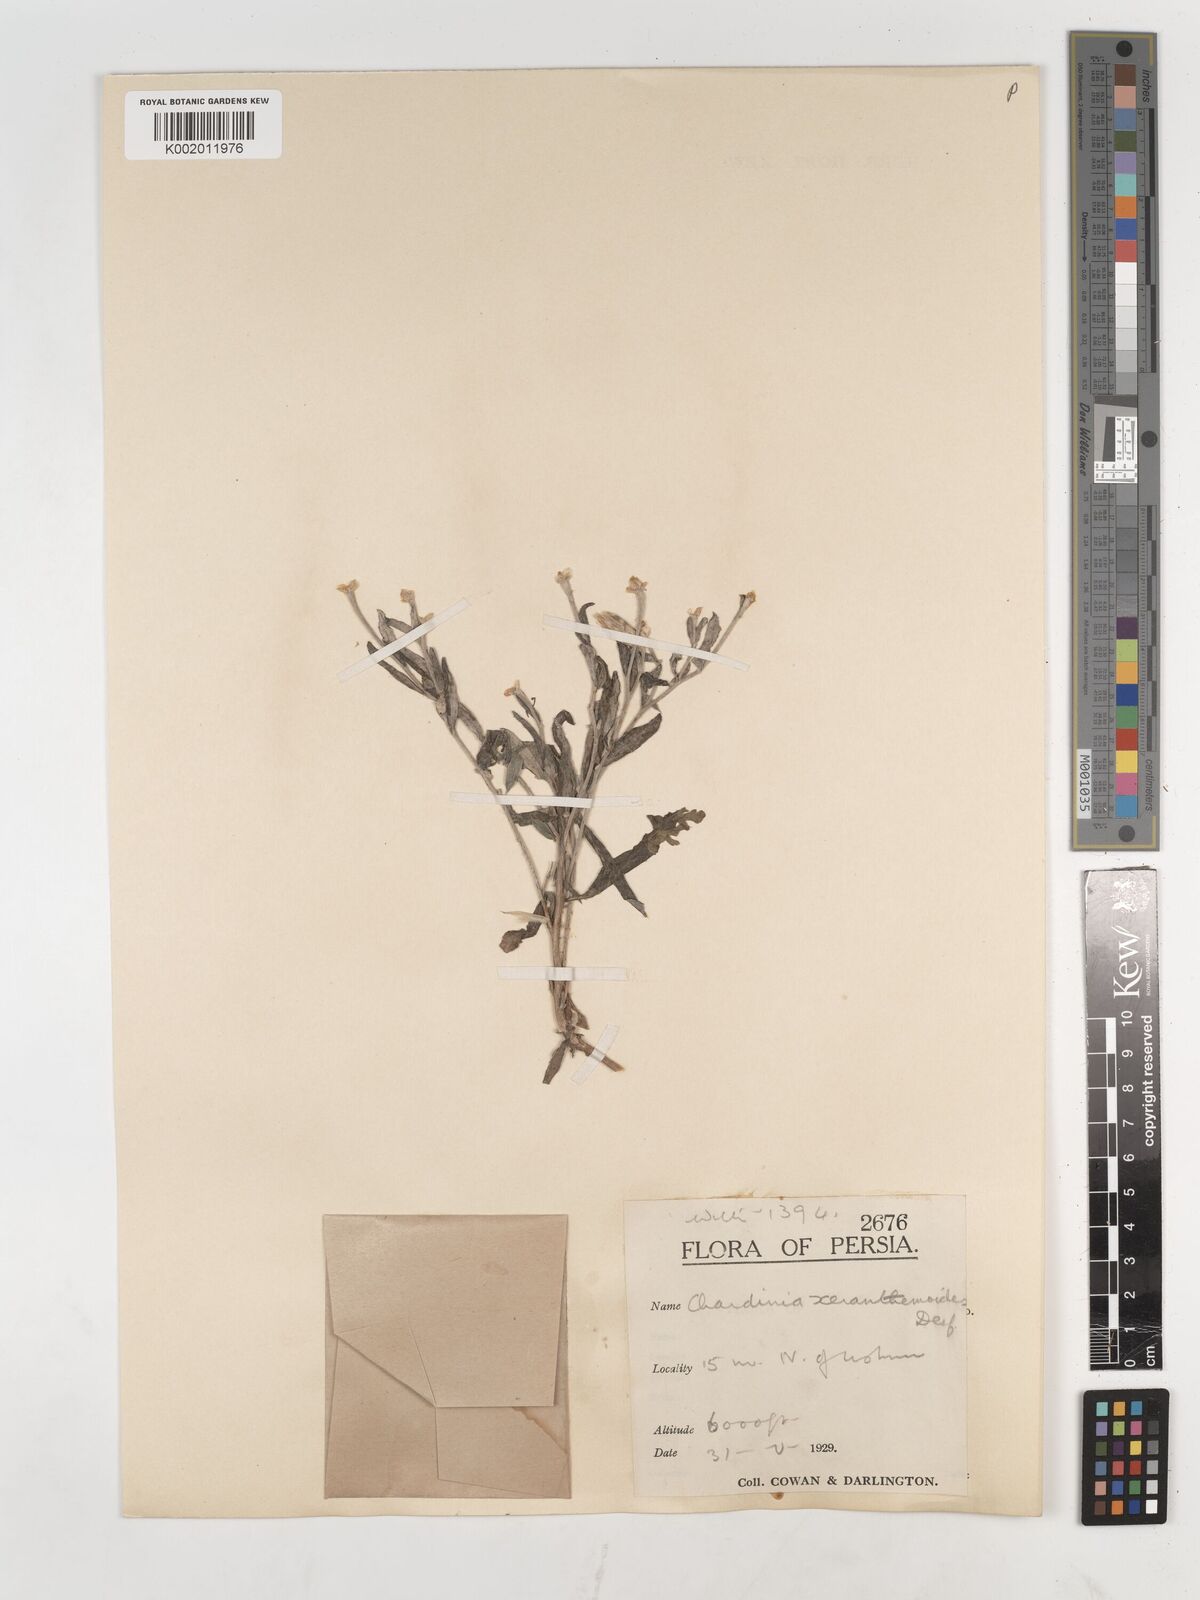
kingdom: Plantae
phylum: Tracheophyta
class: Magnoliopsida
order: Asterales
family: Asteraceae
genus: Chardinia
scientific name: Chardinia orientalis
